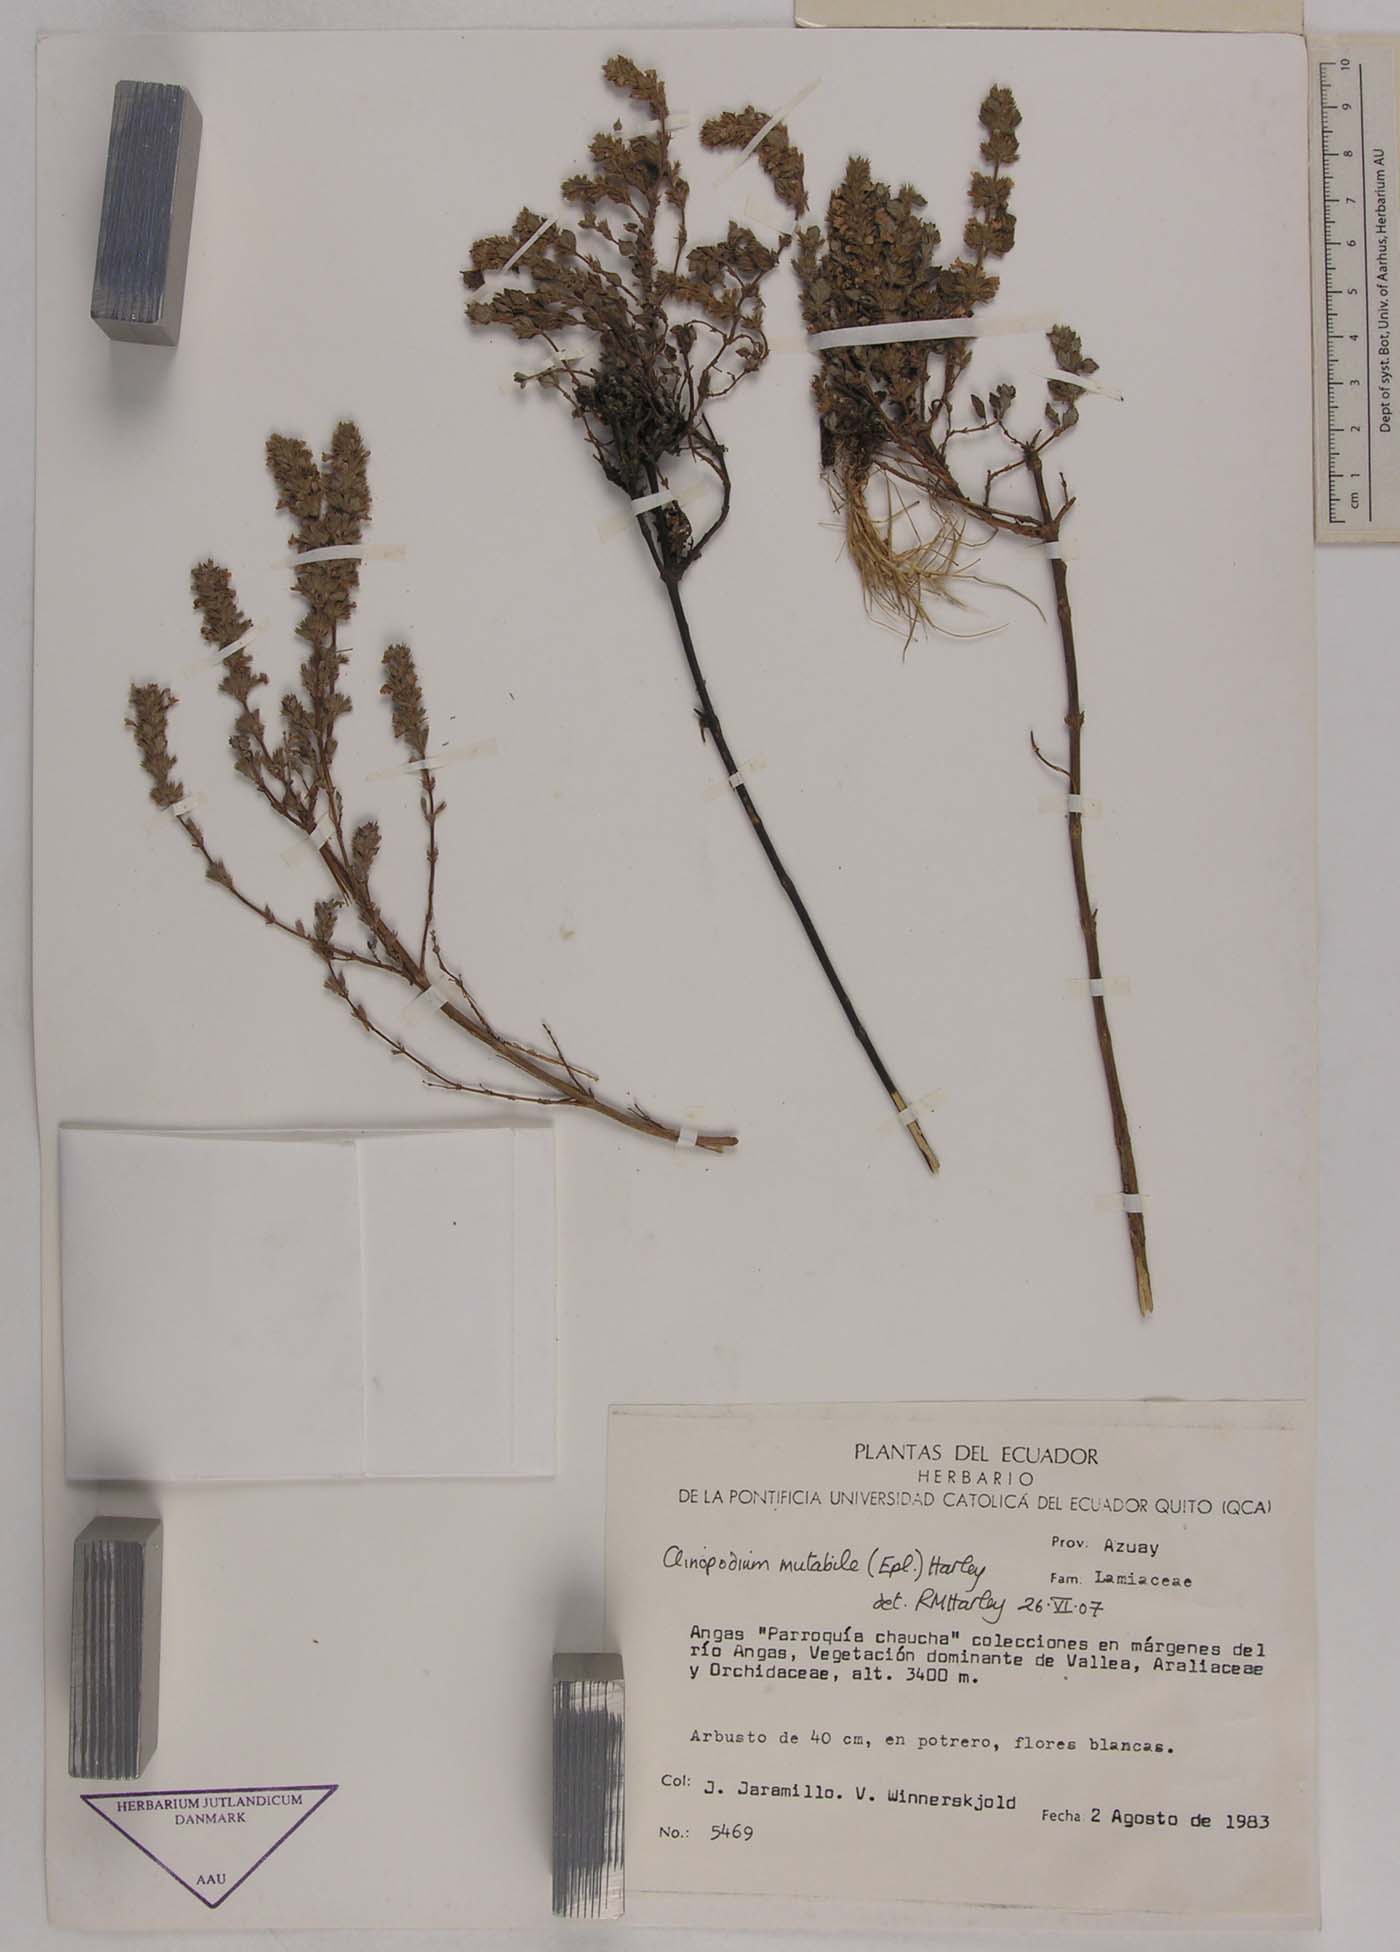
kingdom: Plantae
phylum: Tracheophyta
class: Magnoliopsida
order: Lamiales
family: Lamiaceae
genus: Clinopodium
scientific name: Clinopodium mutabile
